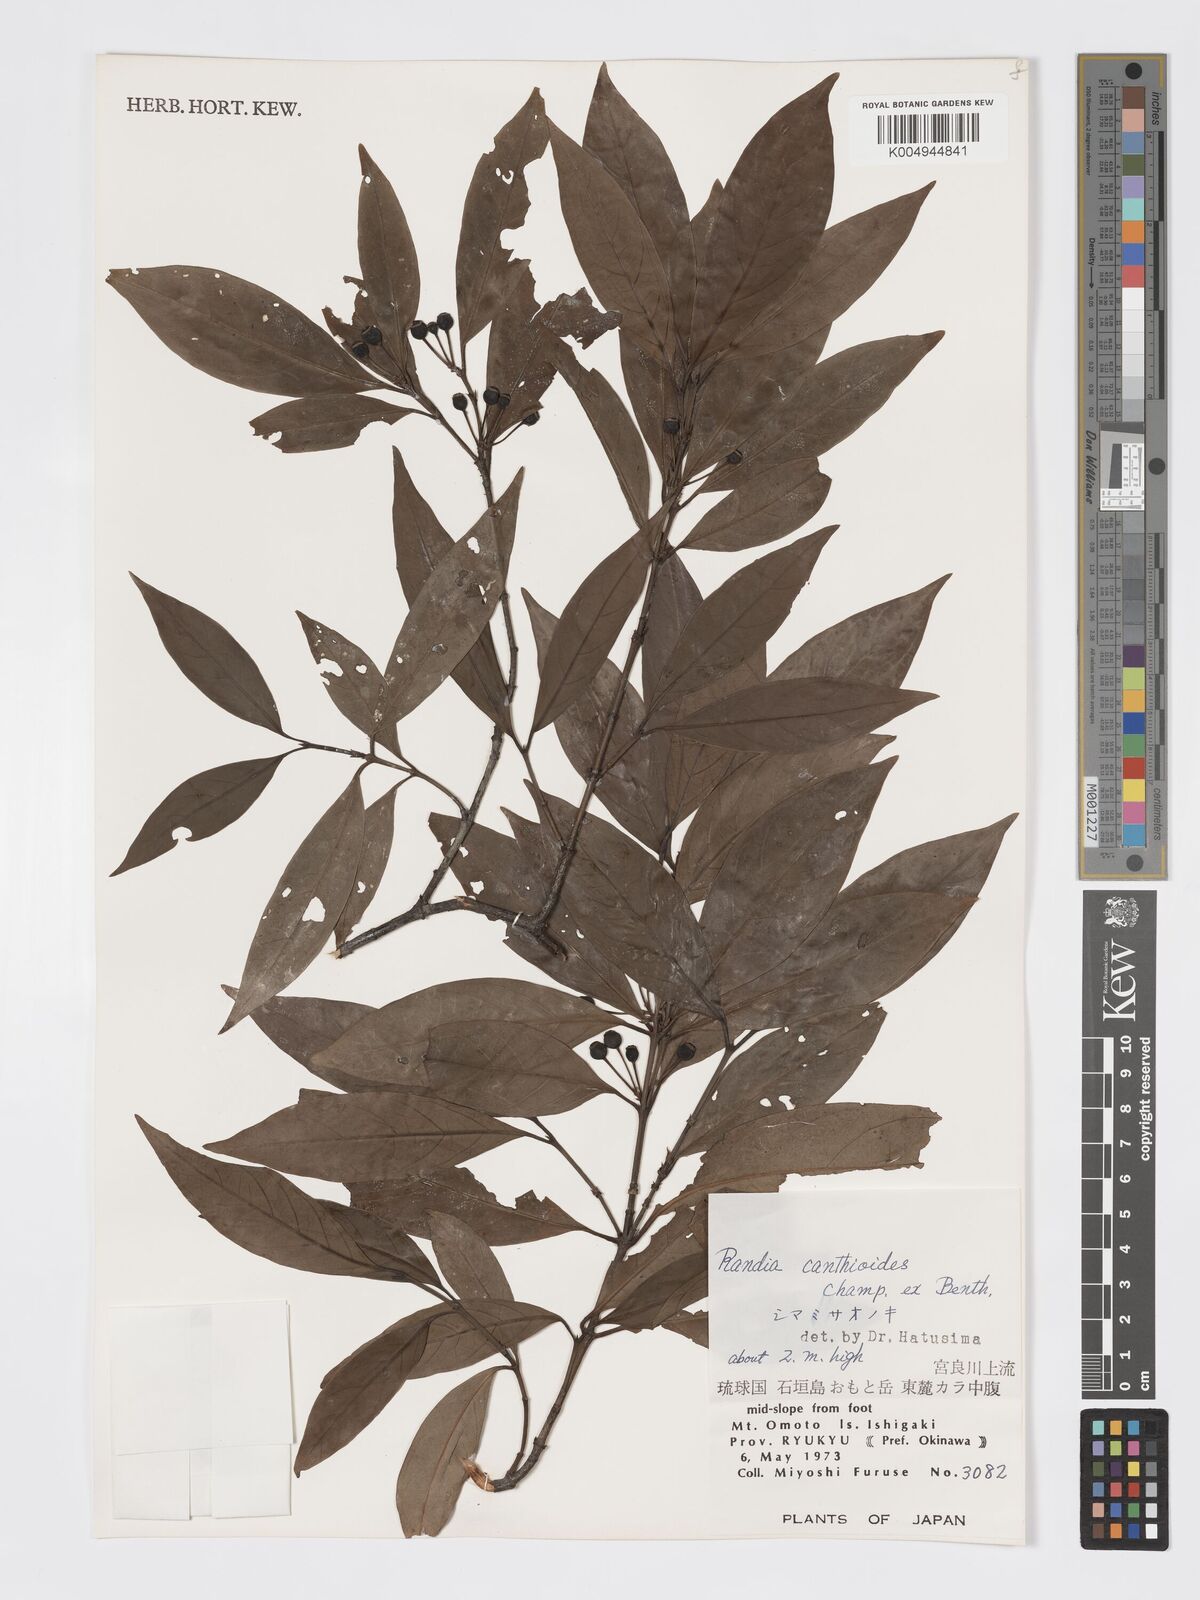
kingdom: Plantae
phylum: Tracheophyta
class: Magnoliopsida
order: Gentianales
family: Rubiaceae
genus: Aidia
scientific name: Aidia canthioides
